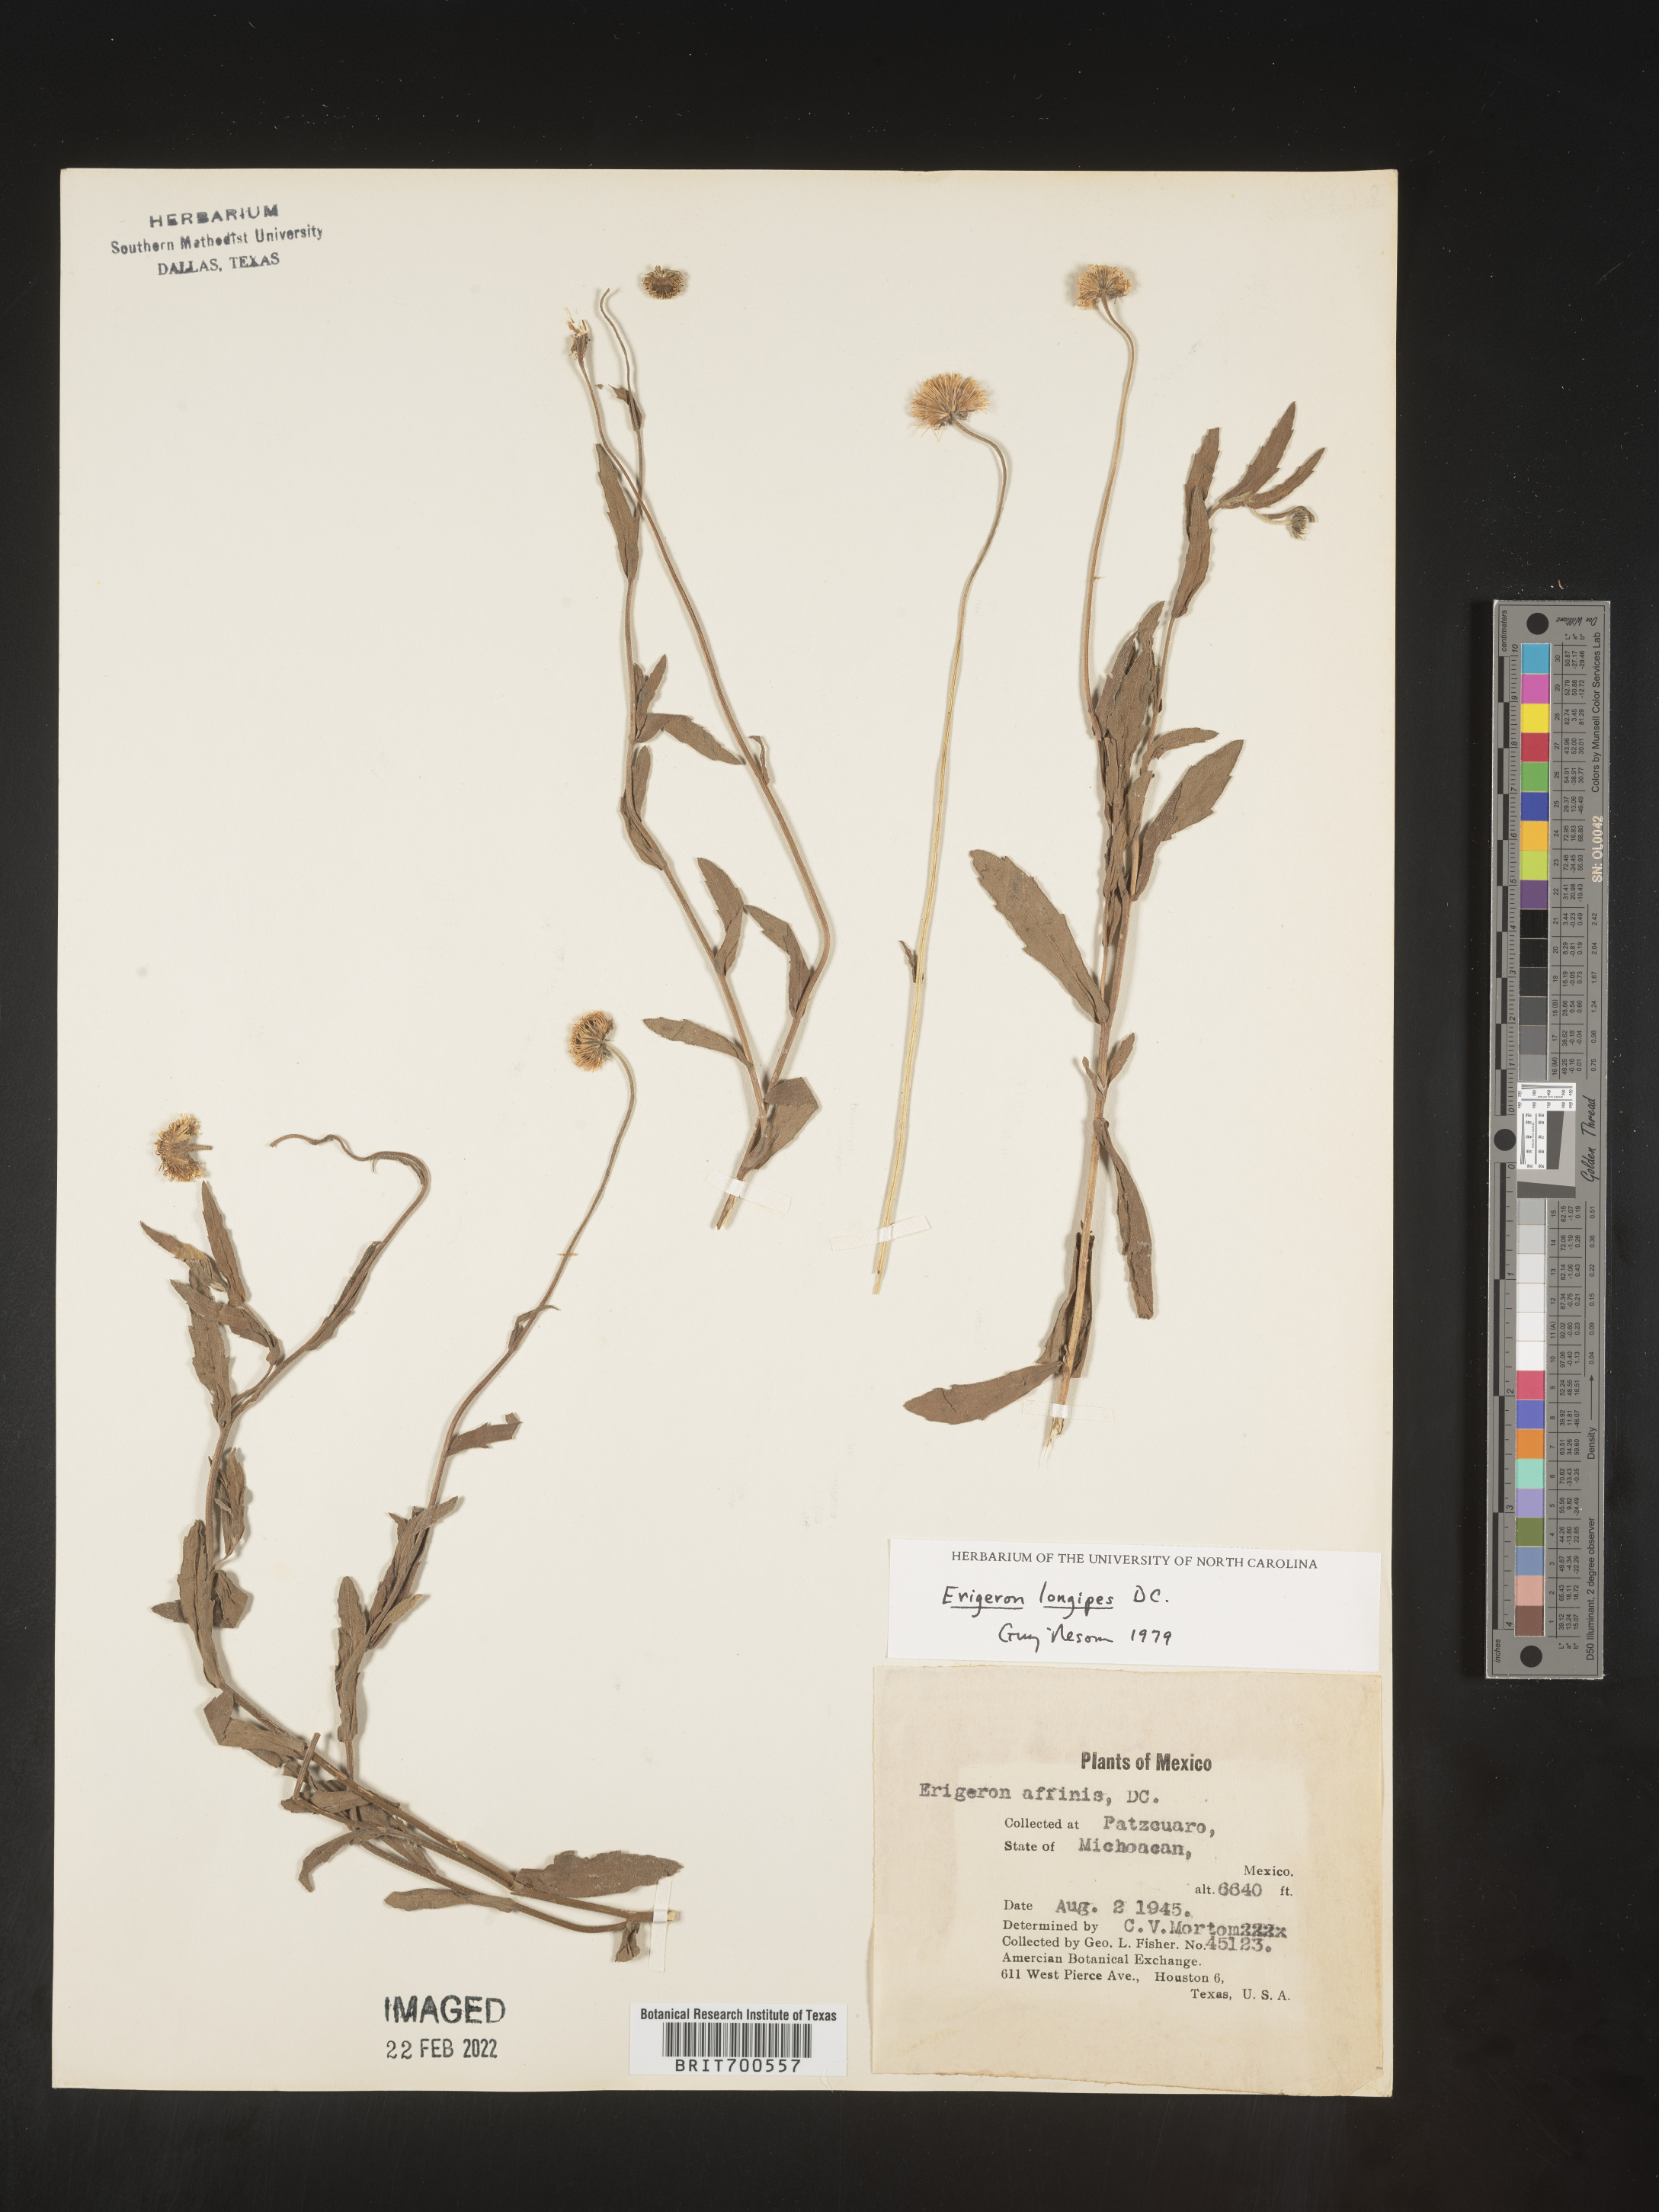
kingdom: Plantae
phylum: Tracheophyta
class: Magnoliopsida
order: Asterales
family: Asteraceae
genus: Erigeron
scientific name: Erigeron longipes
